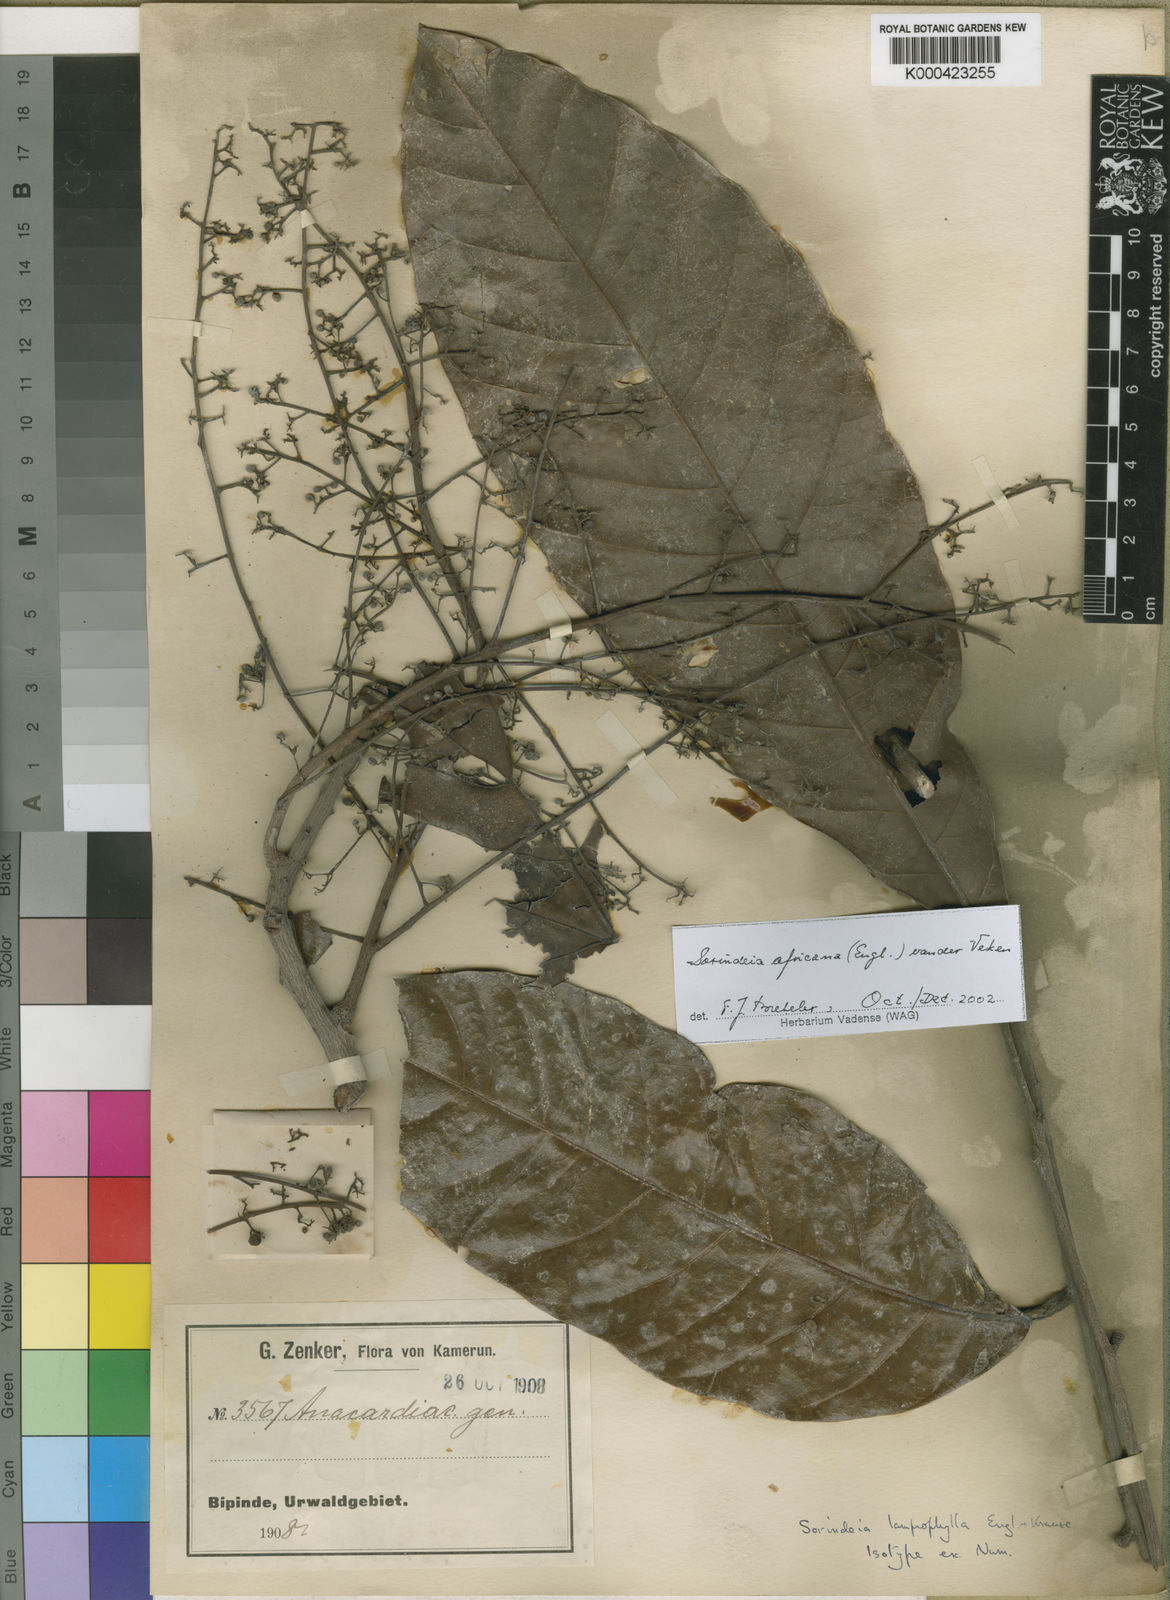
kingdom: Plantae
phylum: Tracheophyta
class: Magnoliopsida
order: Sapindales
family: Anacardiaceae
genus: Sorindeia
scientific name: Sorindeia africana
